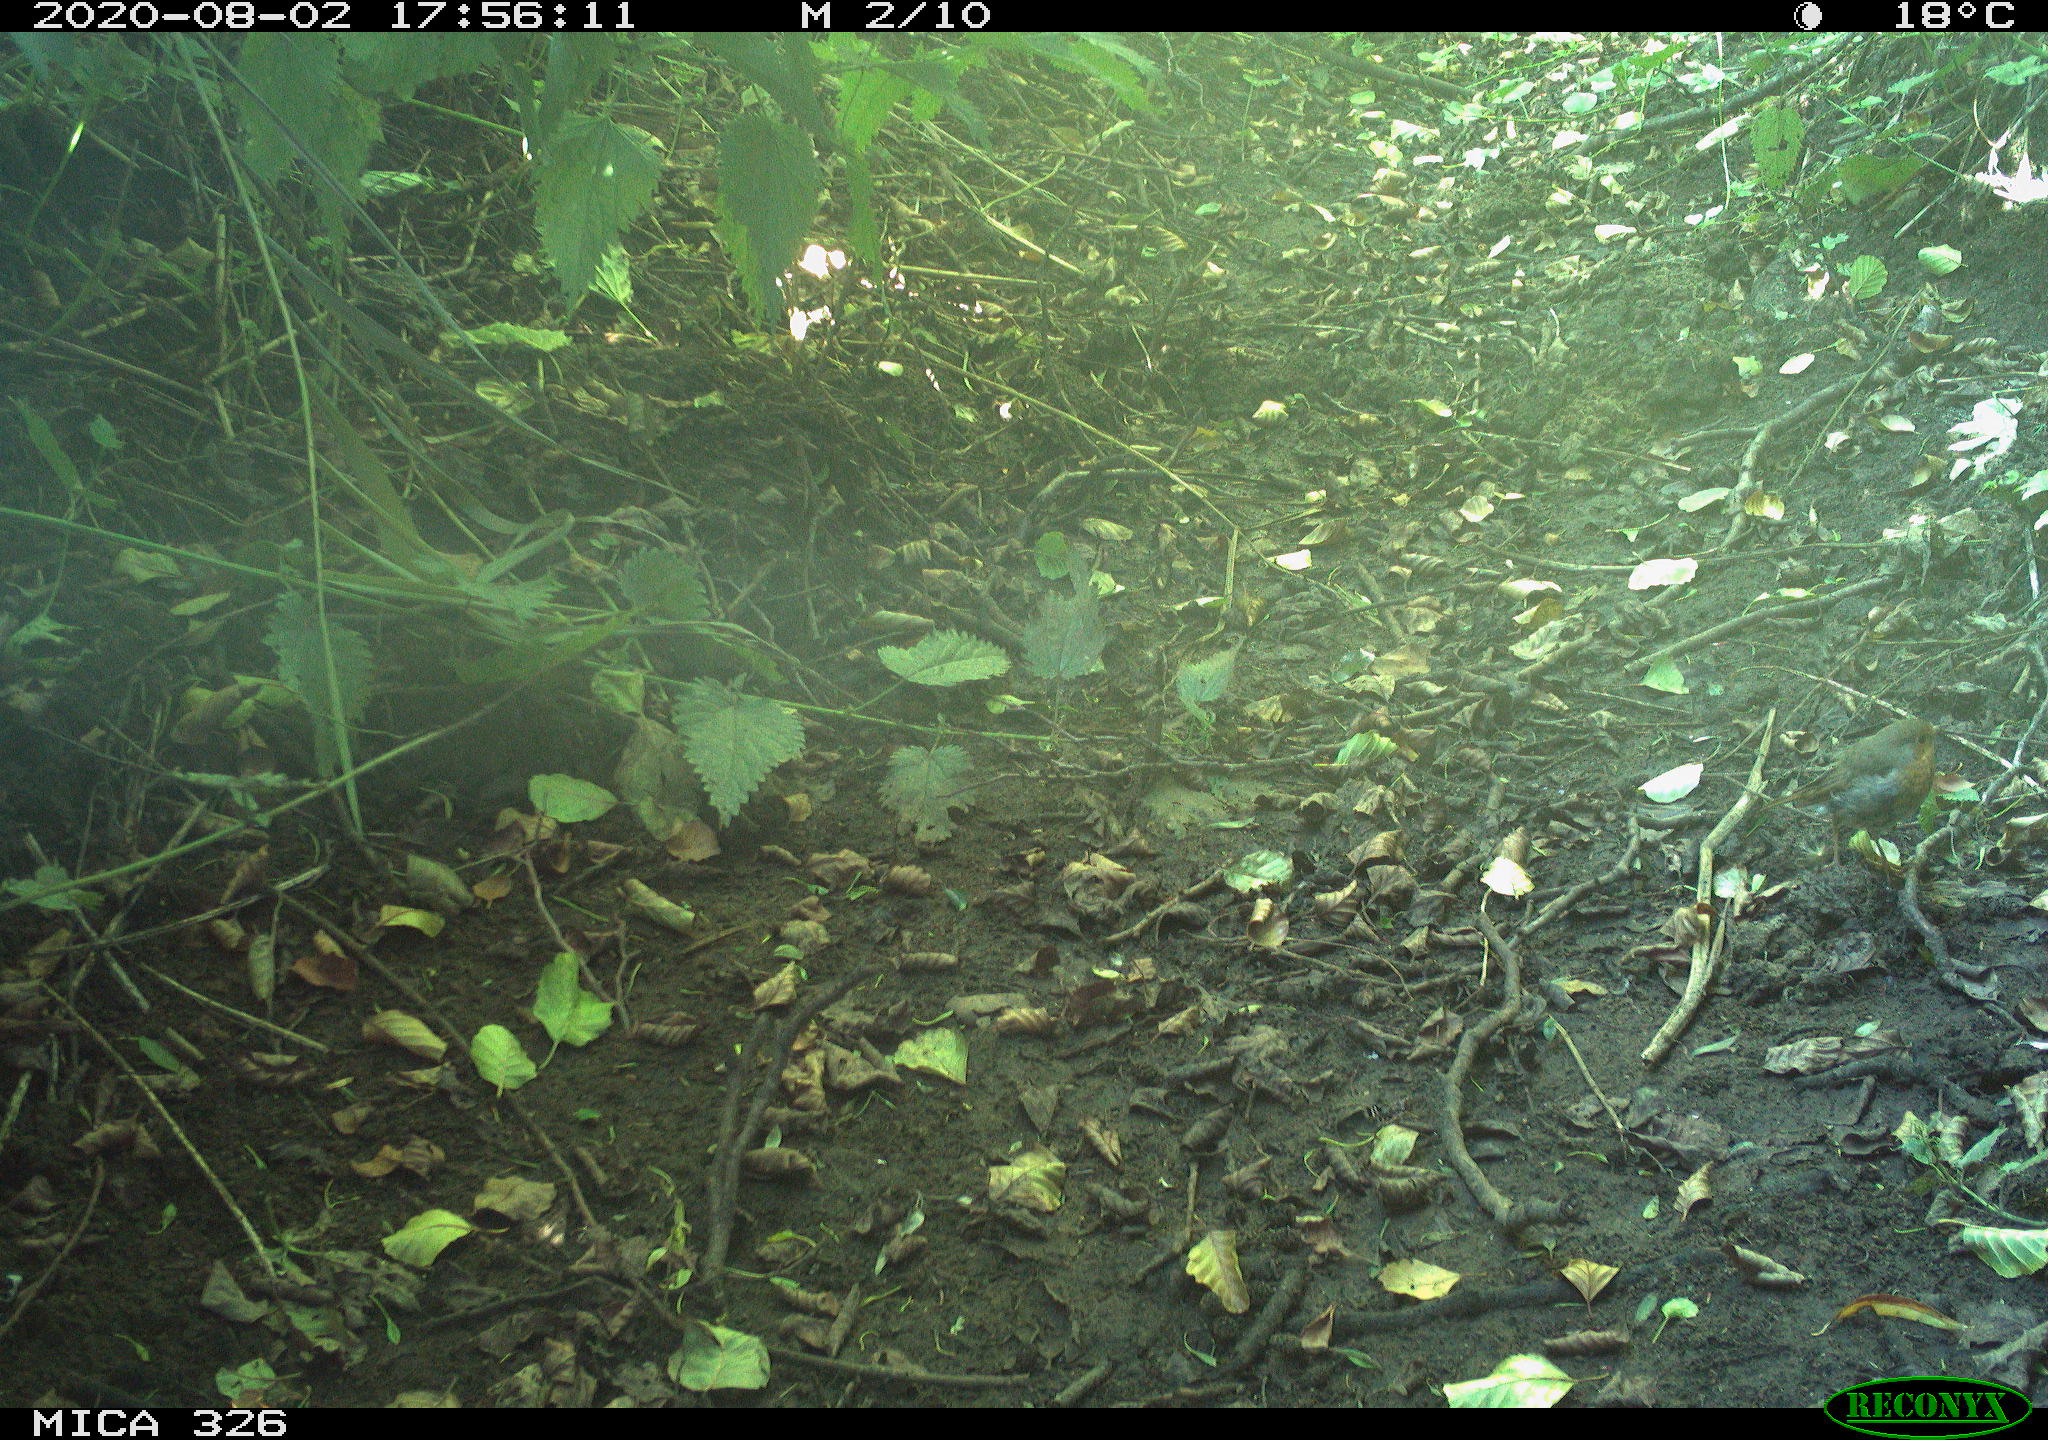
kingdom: Animalia
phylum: Chordata
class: Aves
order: Passeriformes
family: Muscicapidae
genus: Erithacus
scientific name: Erithacus rubecula
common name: European robin
